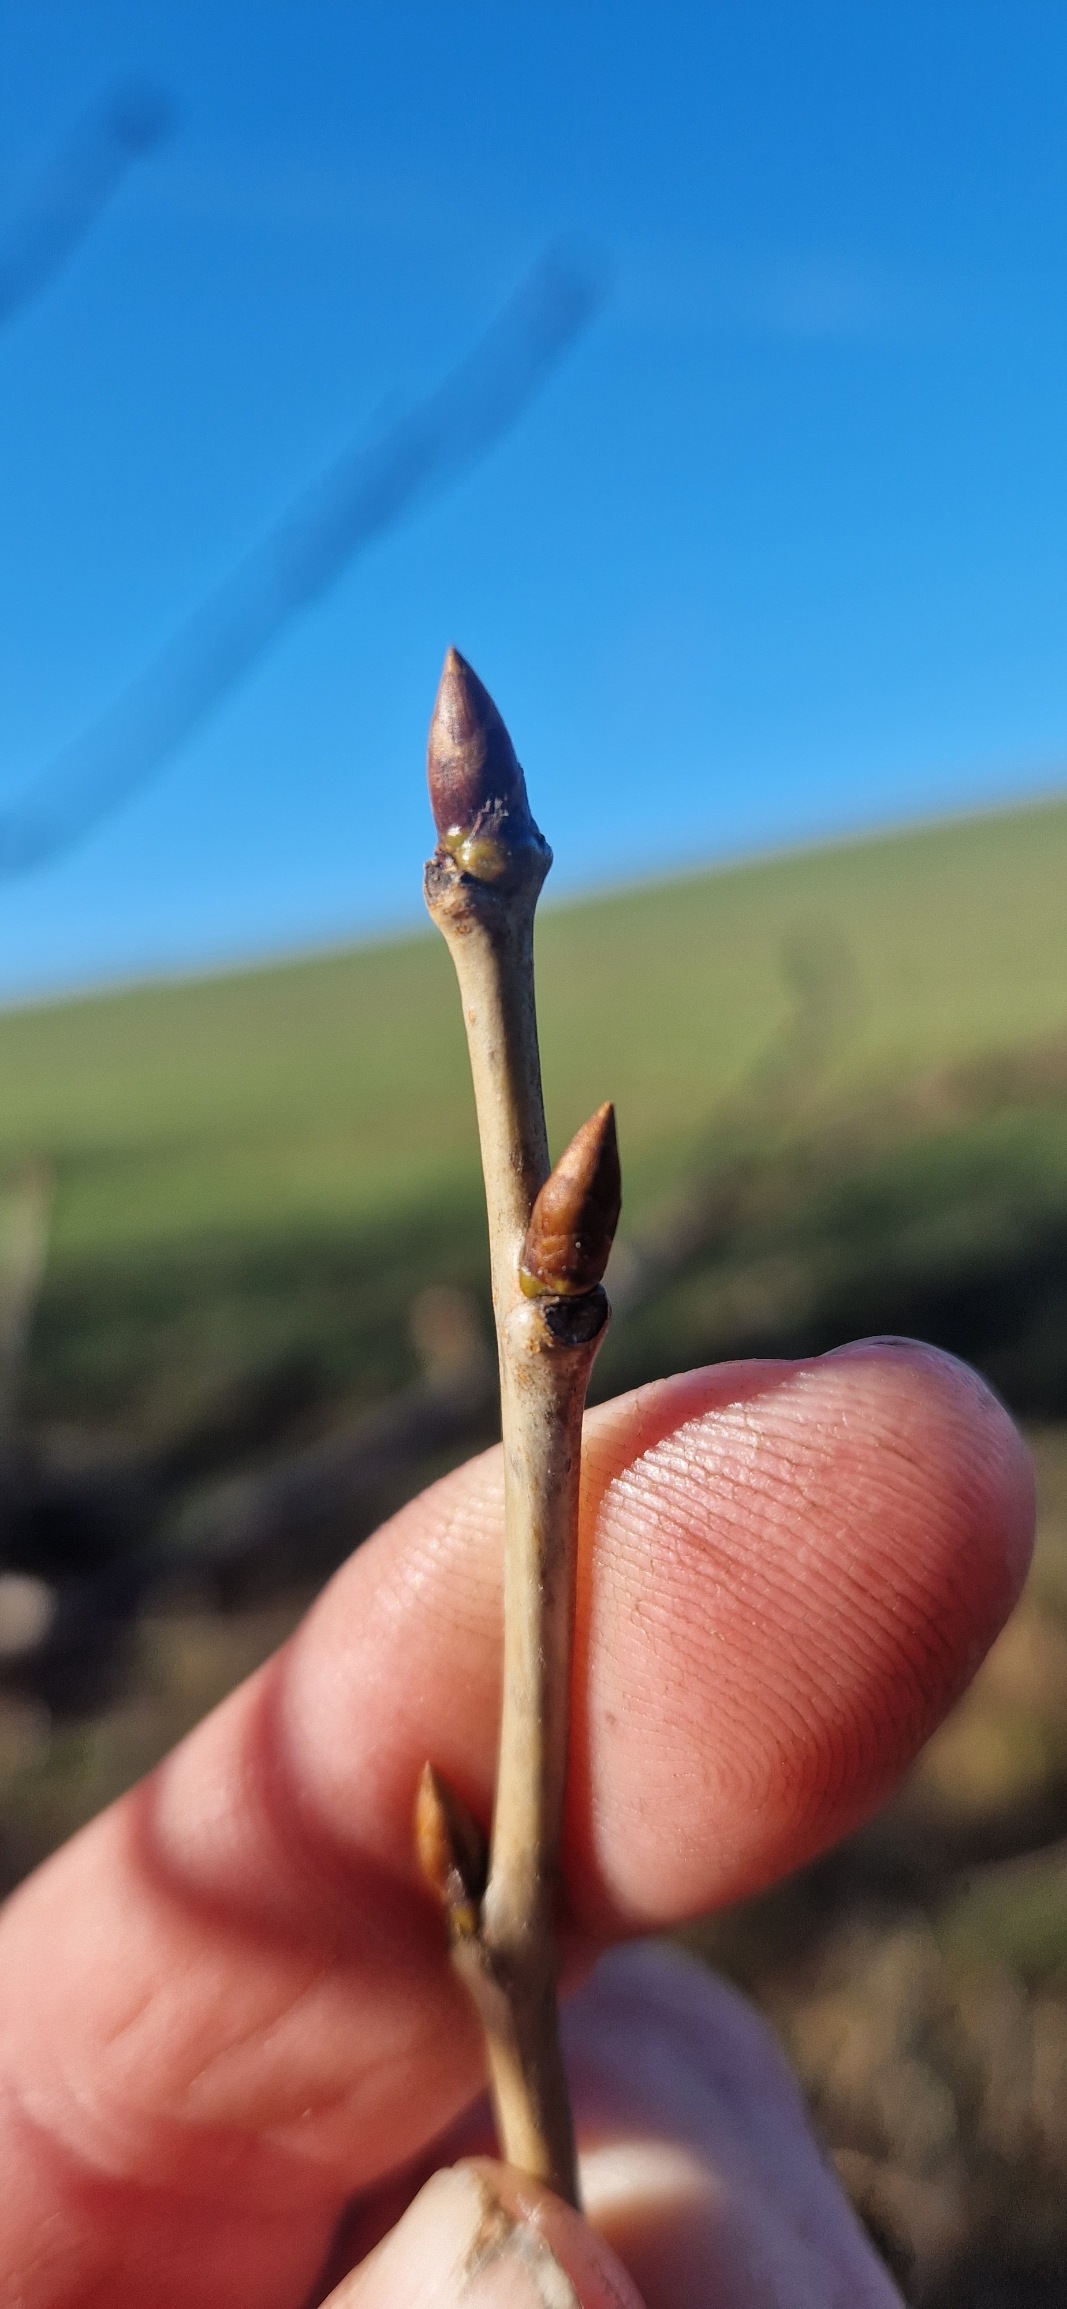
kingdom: Plantae
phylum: Tracheophyta
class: Magnoliopsida
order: Rosales
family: Rosaceae
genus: Prunus
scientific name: Prunus avium
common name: Fugle-kirsebær
